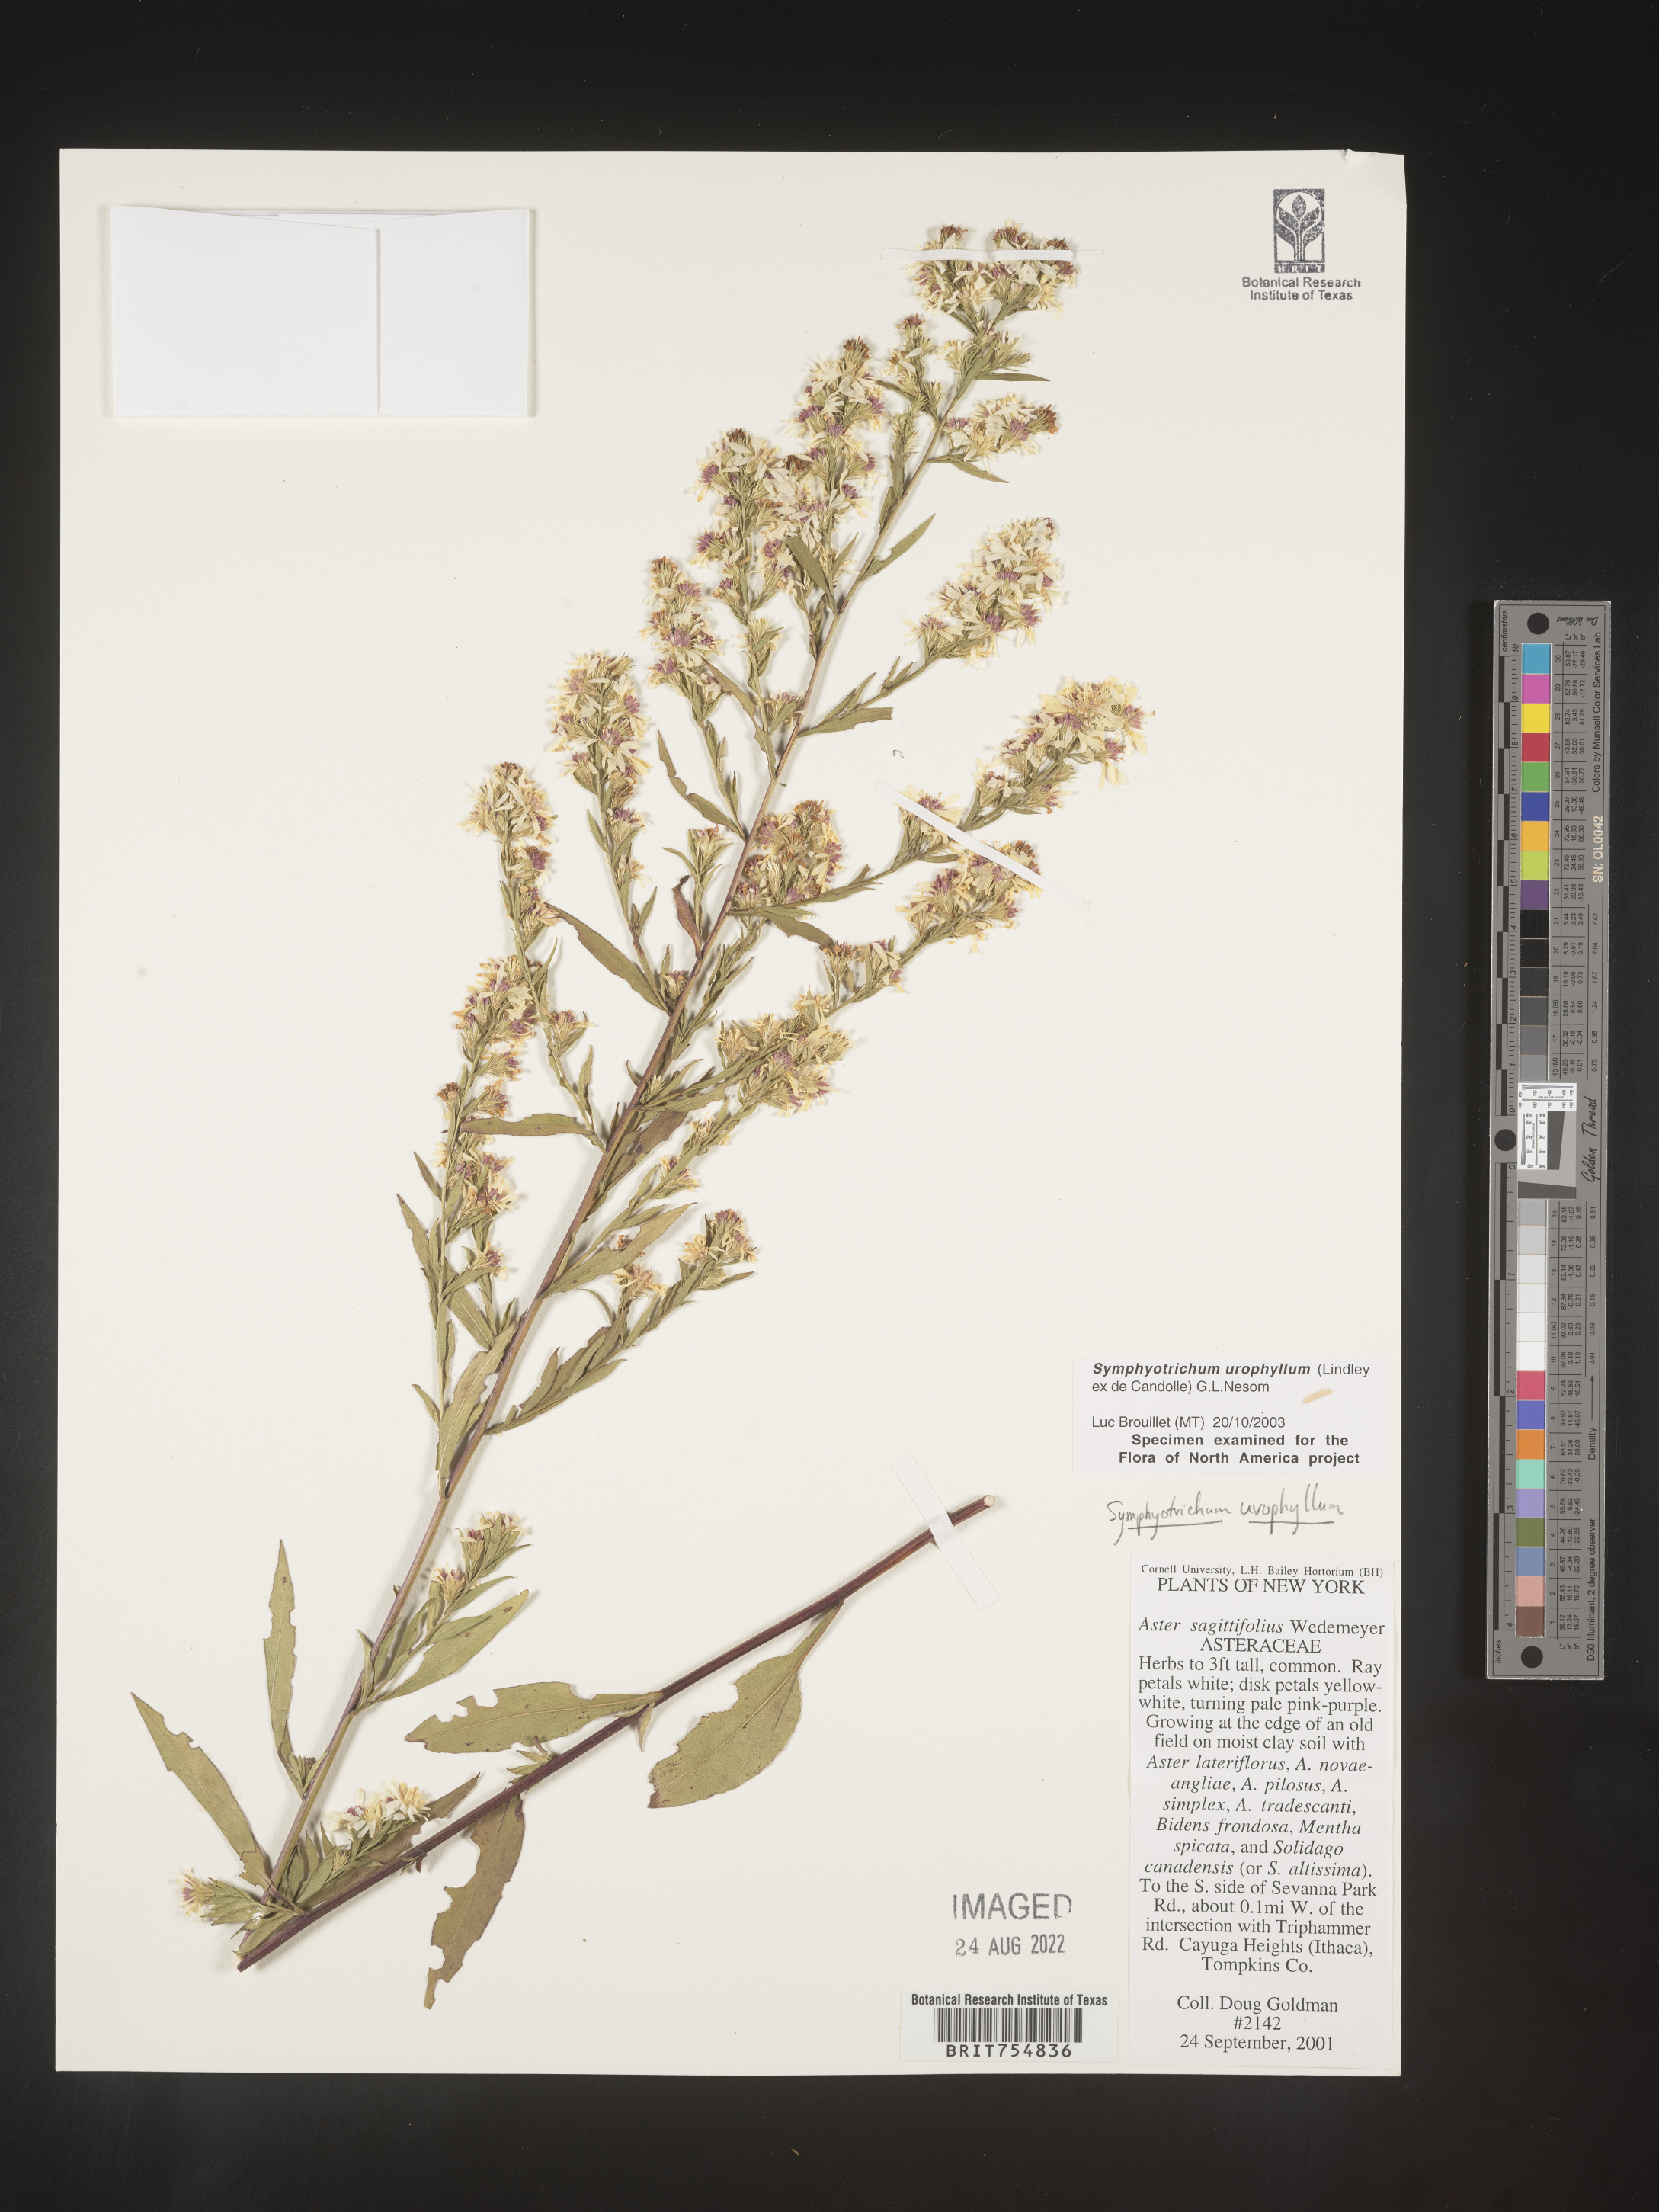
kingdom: Plantae
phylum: Tracheophyta
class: Magnoliopsida
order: Asterales
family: Asteraceae
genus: Symphyotrichum
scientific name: Symphyotrichum urophyllum
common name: Arrow-leaved aster
